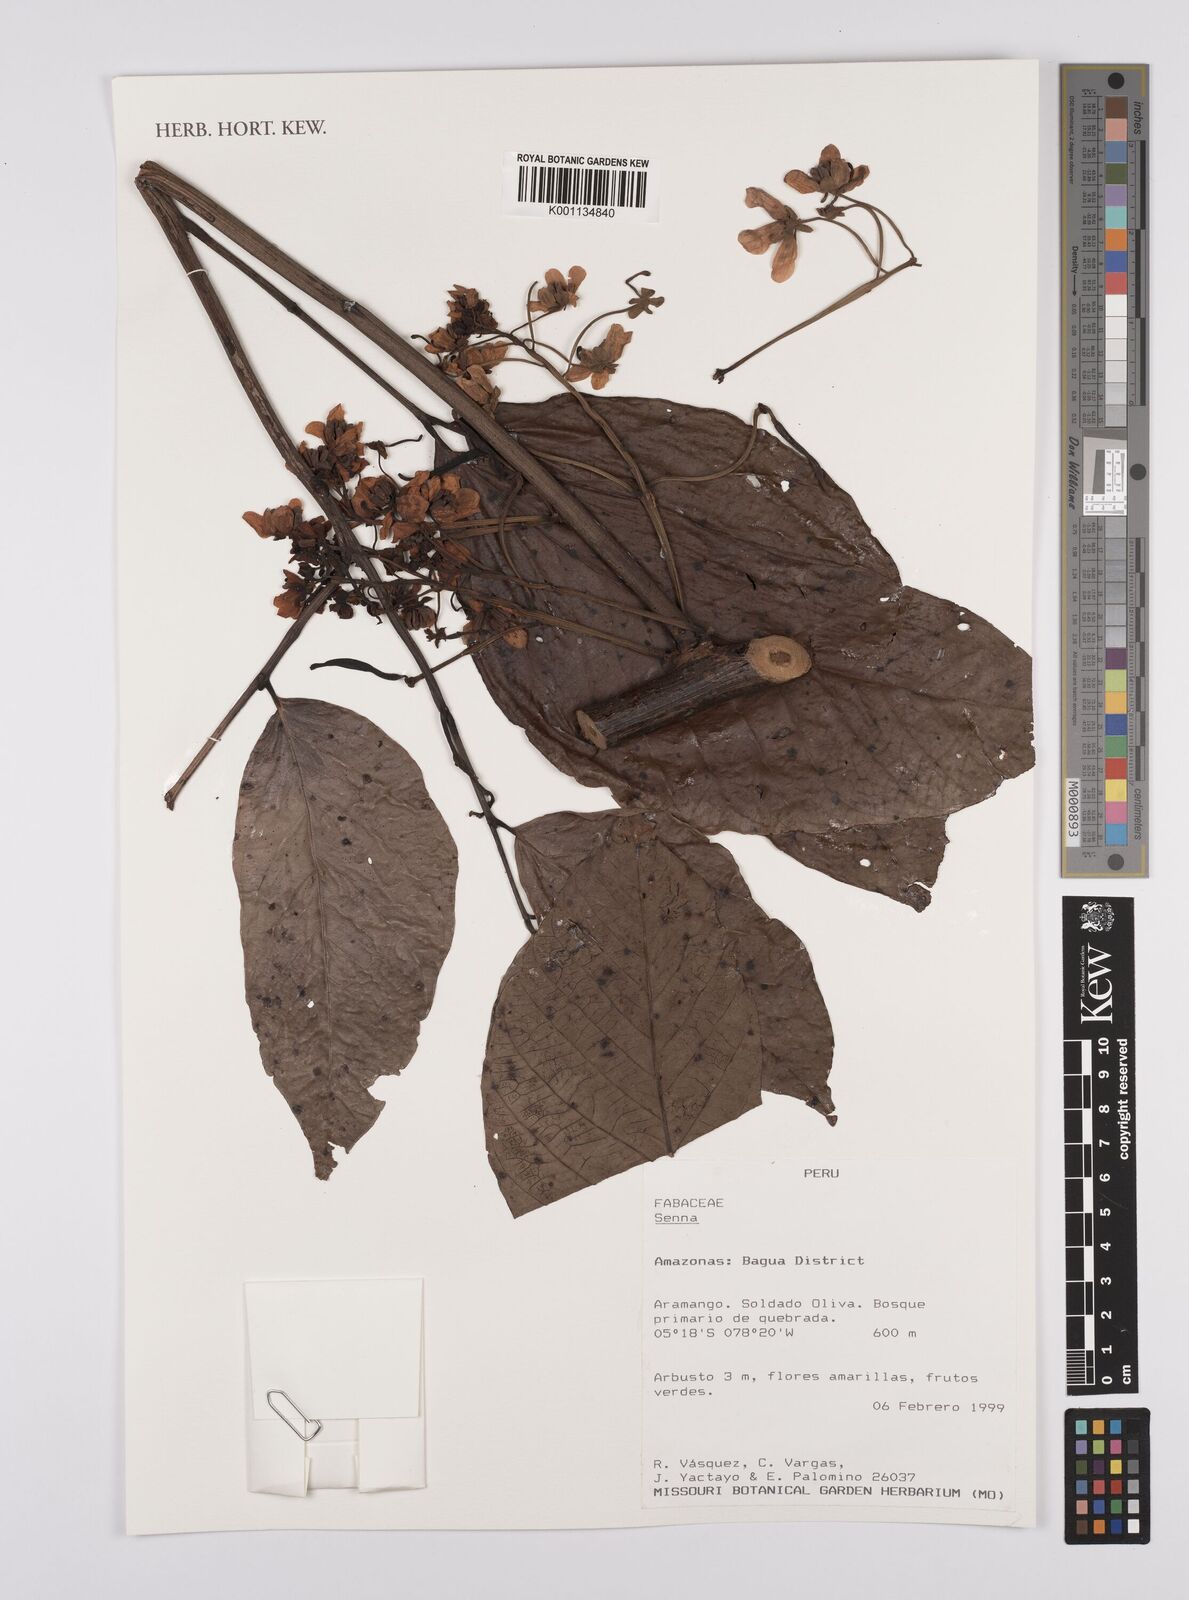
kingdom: Plantae
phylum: Tracheophyta
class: Magnoliopsida
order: Fabales
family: Fabaceae
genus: Senna
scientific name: Senna
